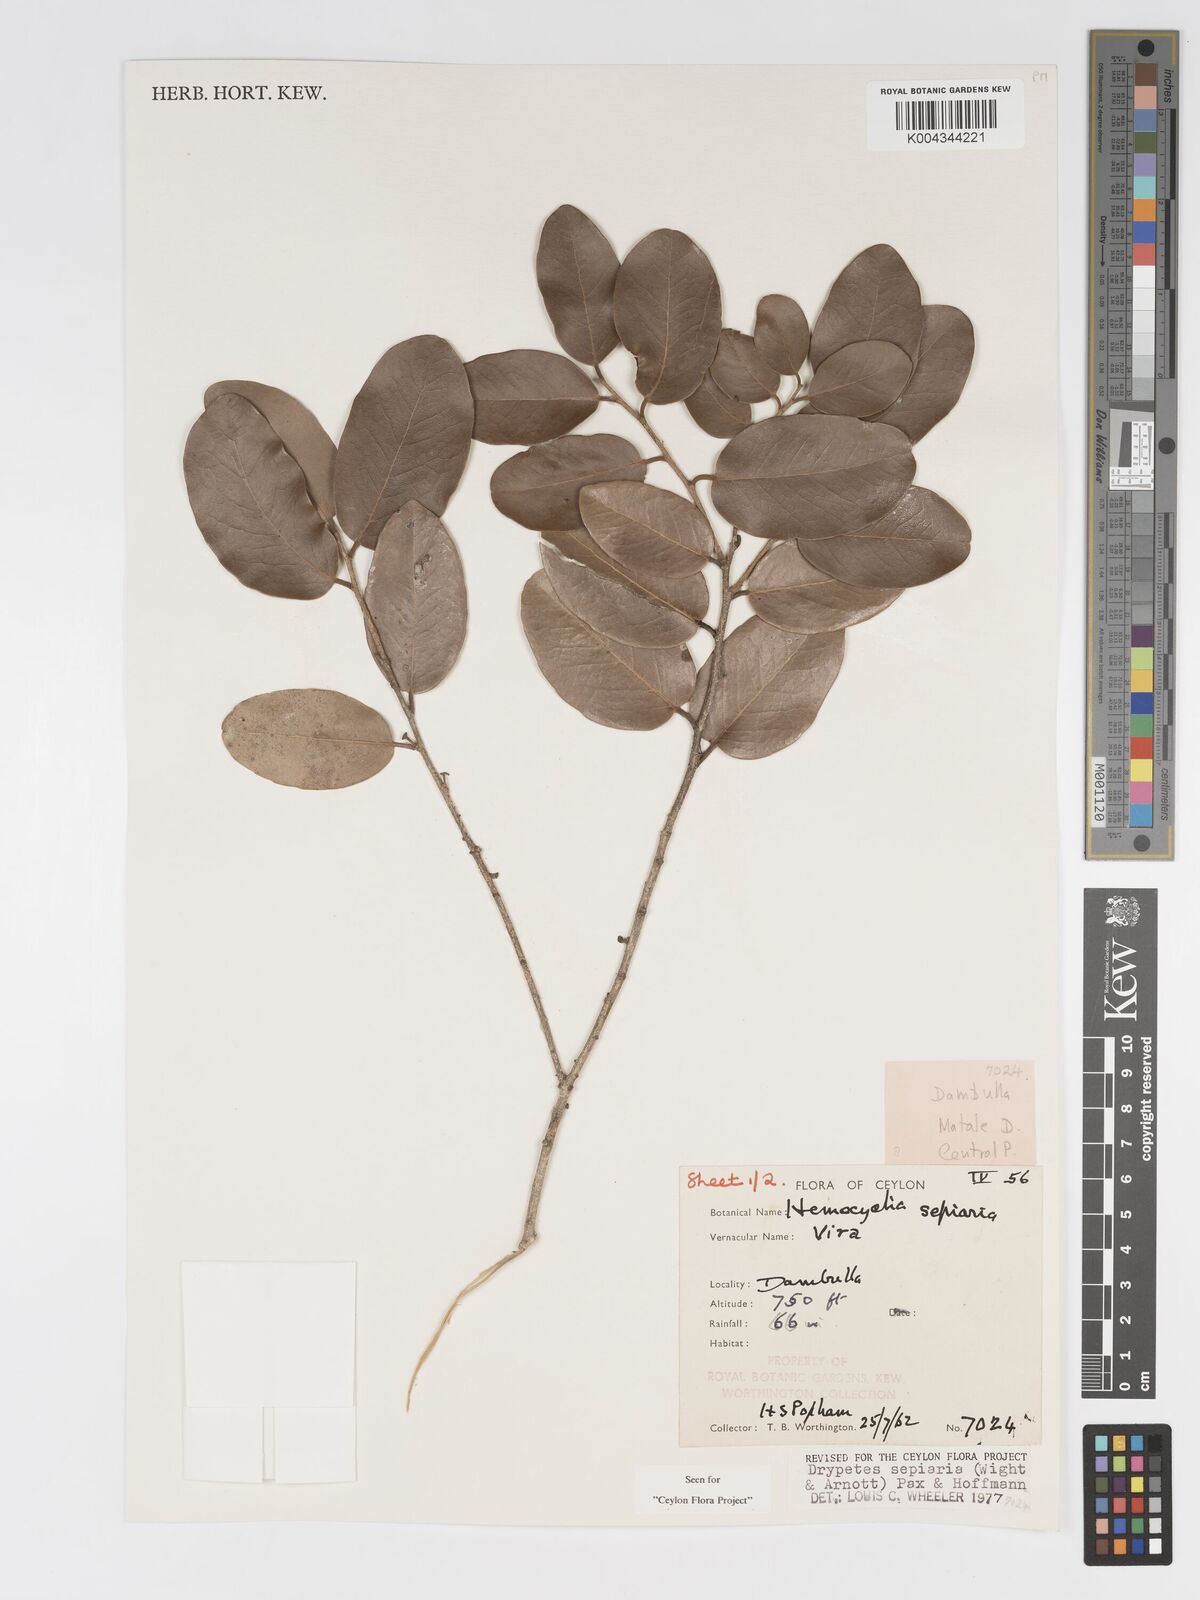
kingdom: Plantae
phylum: Tracheophyta
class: Magnoliopsida
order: Malpighiales
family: Putranjivaceae
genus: Drypetes
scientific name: Drypetes sepiaria
